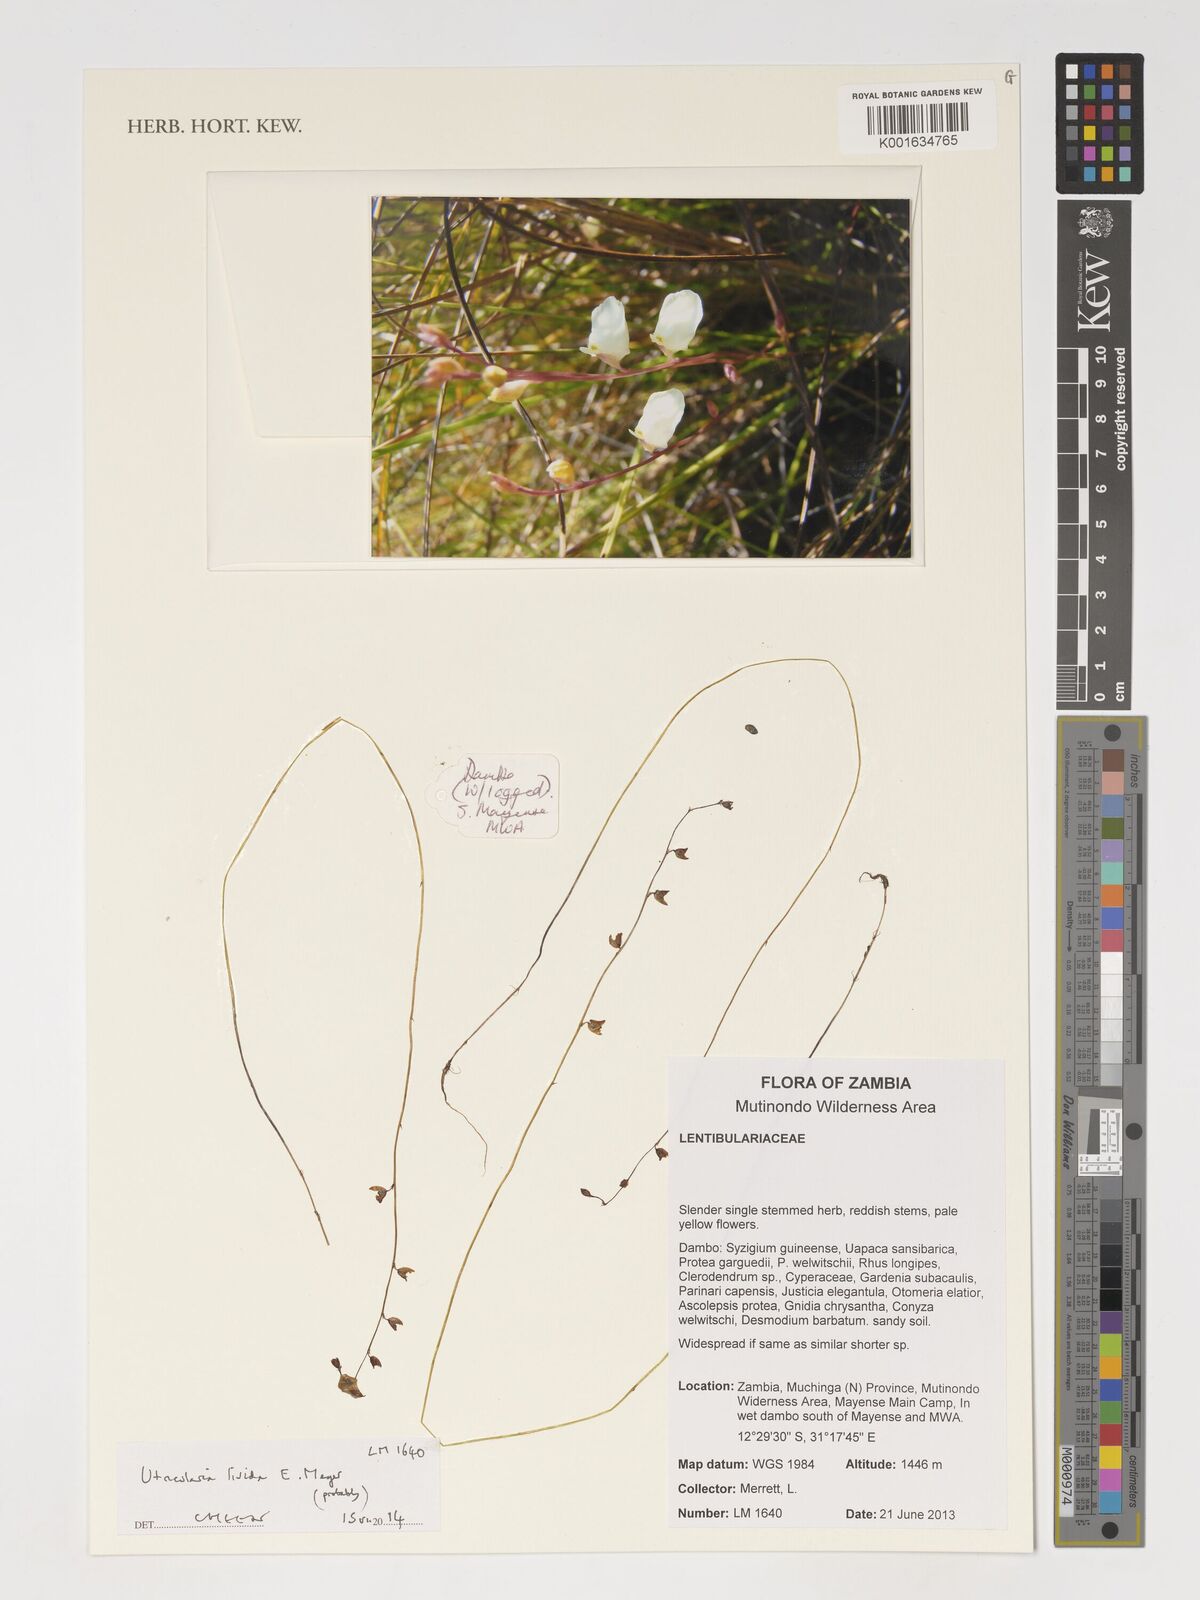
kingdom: Plantae
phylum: Tracheophyta
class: Magnoliopsida
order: Lamiales
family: Lentibulariaceae
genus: Utricularia
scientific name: Utricularia livida
